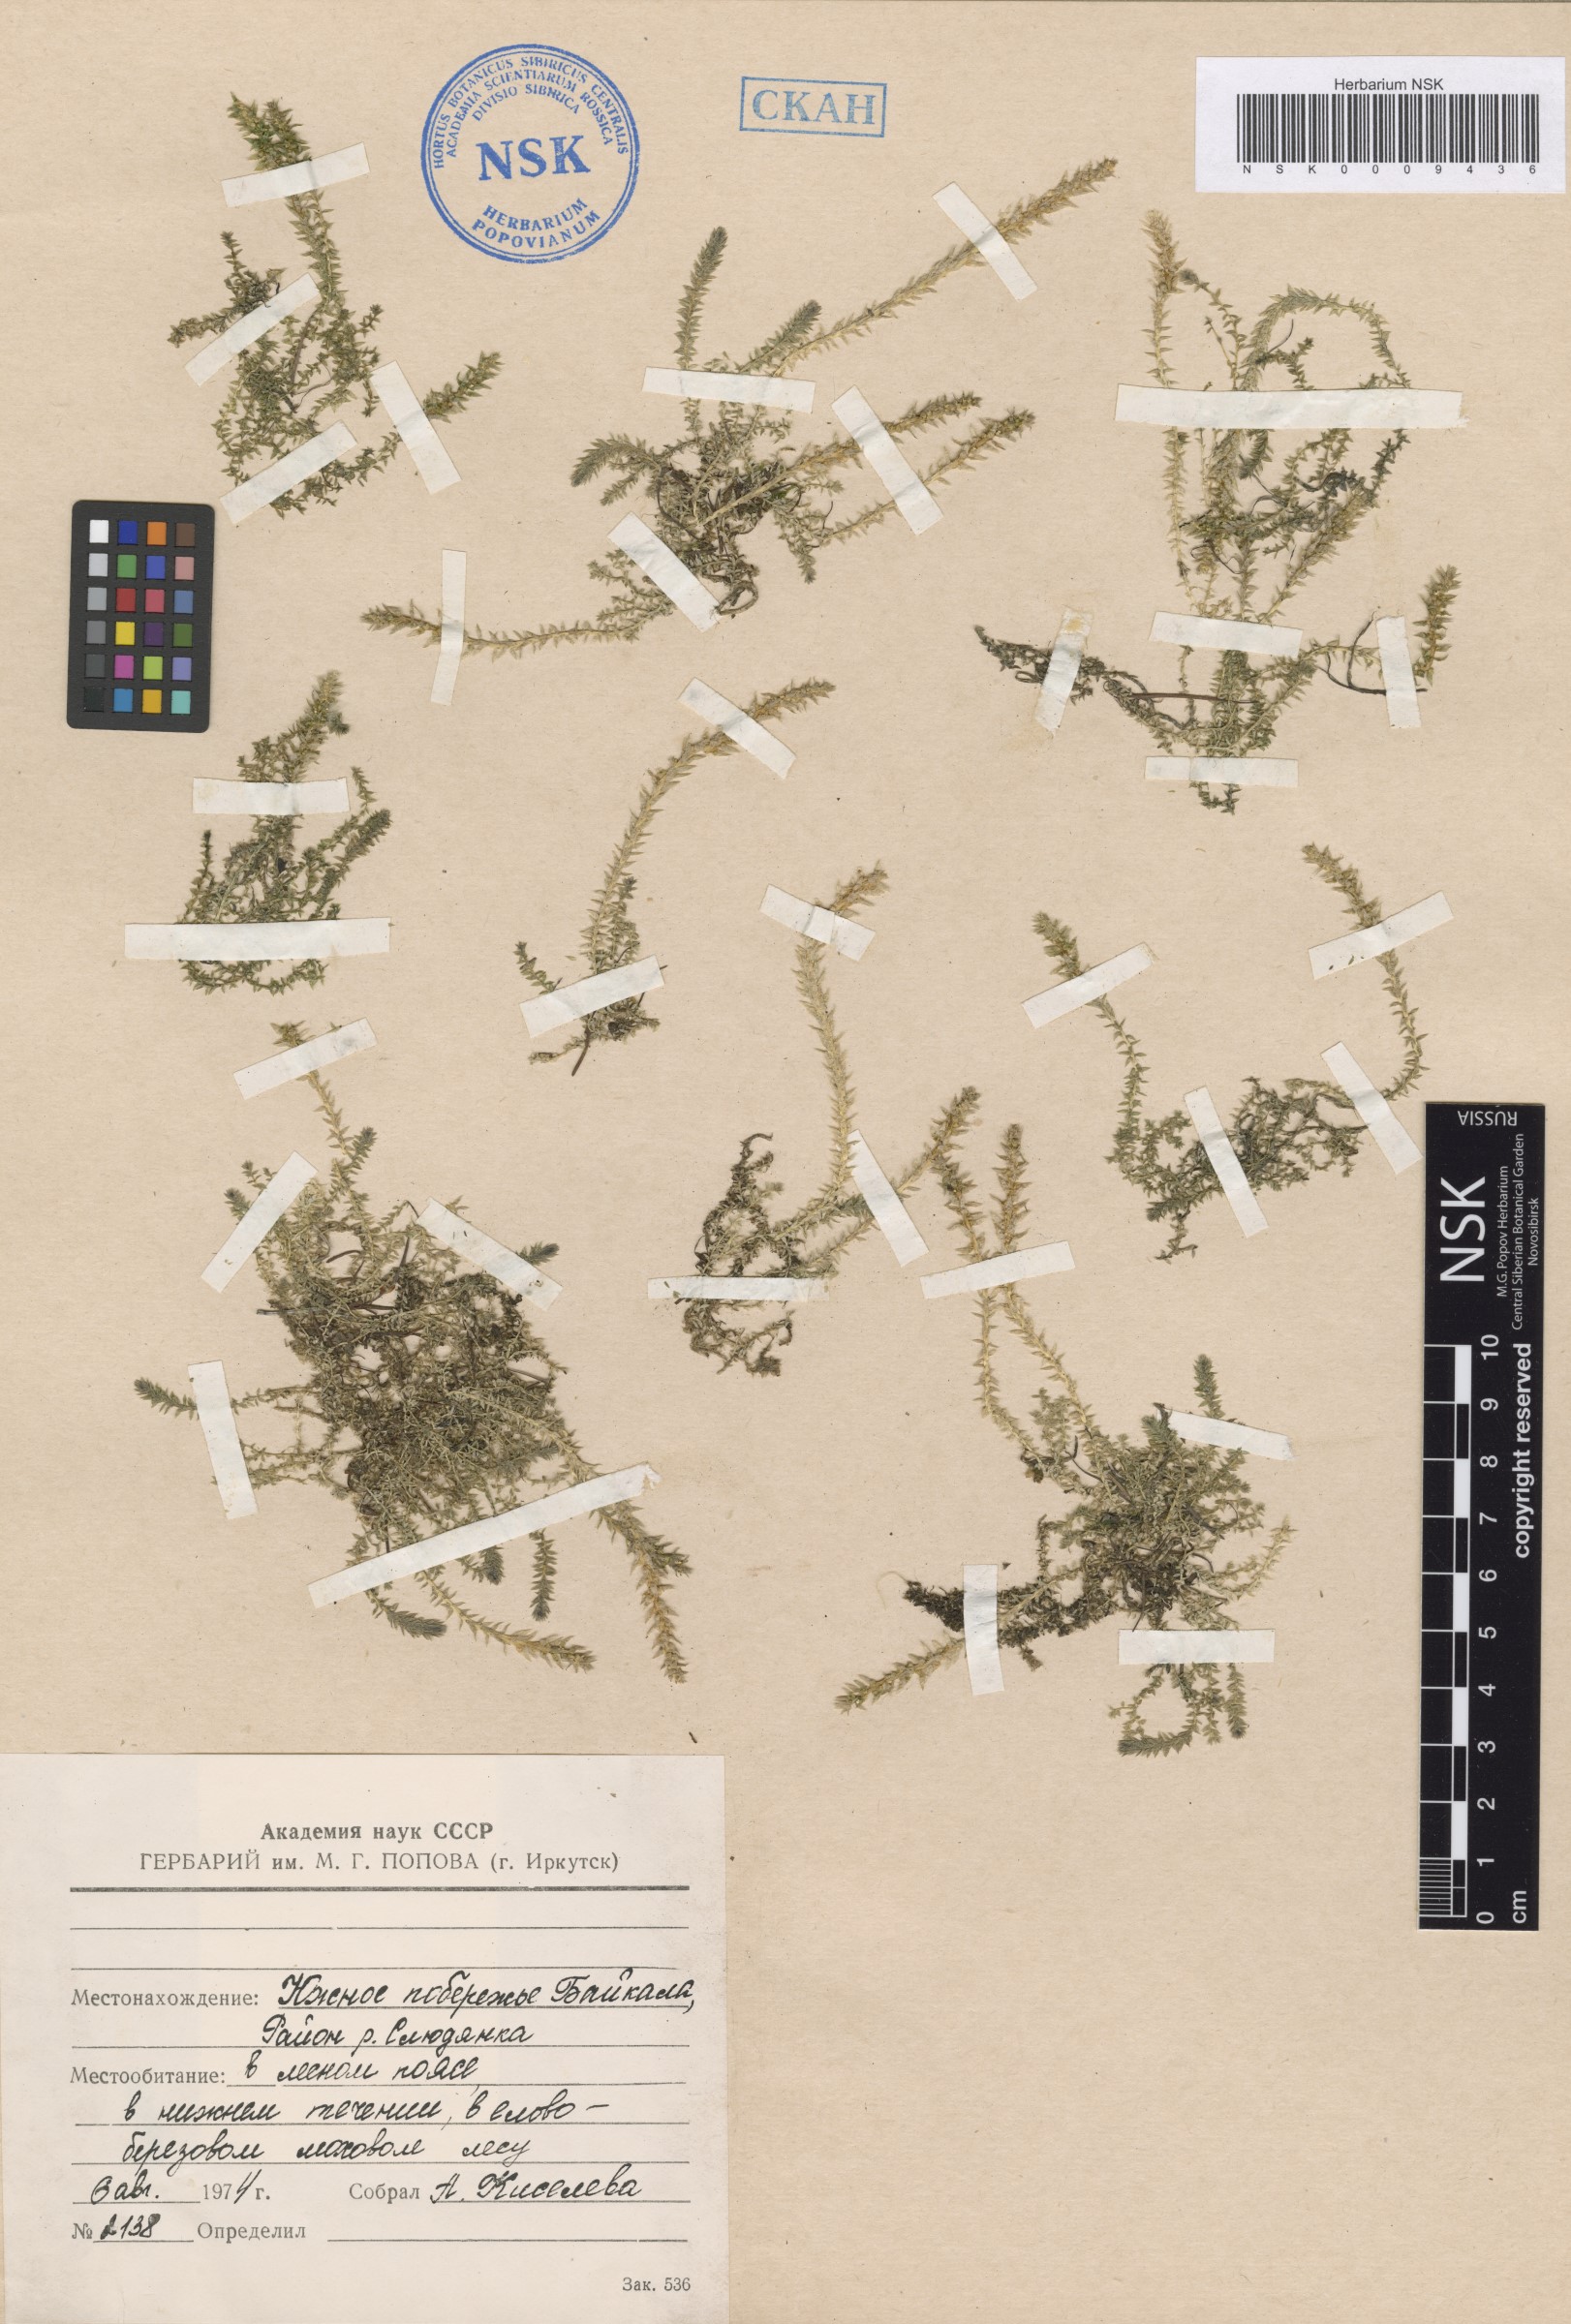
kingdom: Plantae
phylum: Tracheophyta
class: Lycopodiopsida
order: Selaginellales
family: Selaginellaceae
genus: Selaginella
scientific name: Selaginella selaginoides
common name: Prickly mountain-moss
